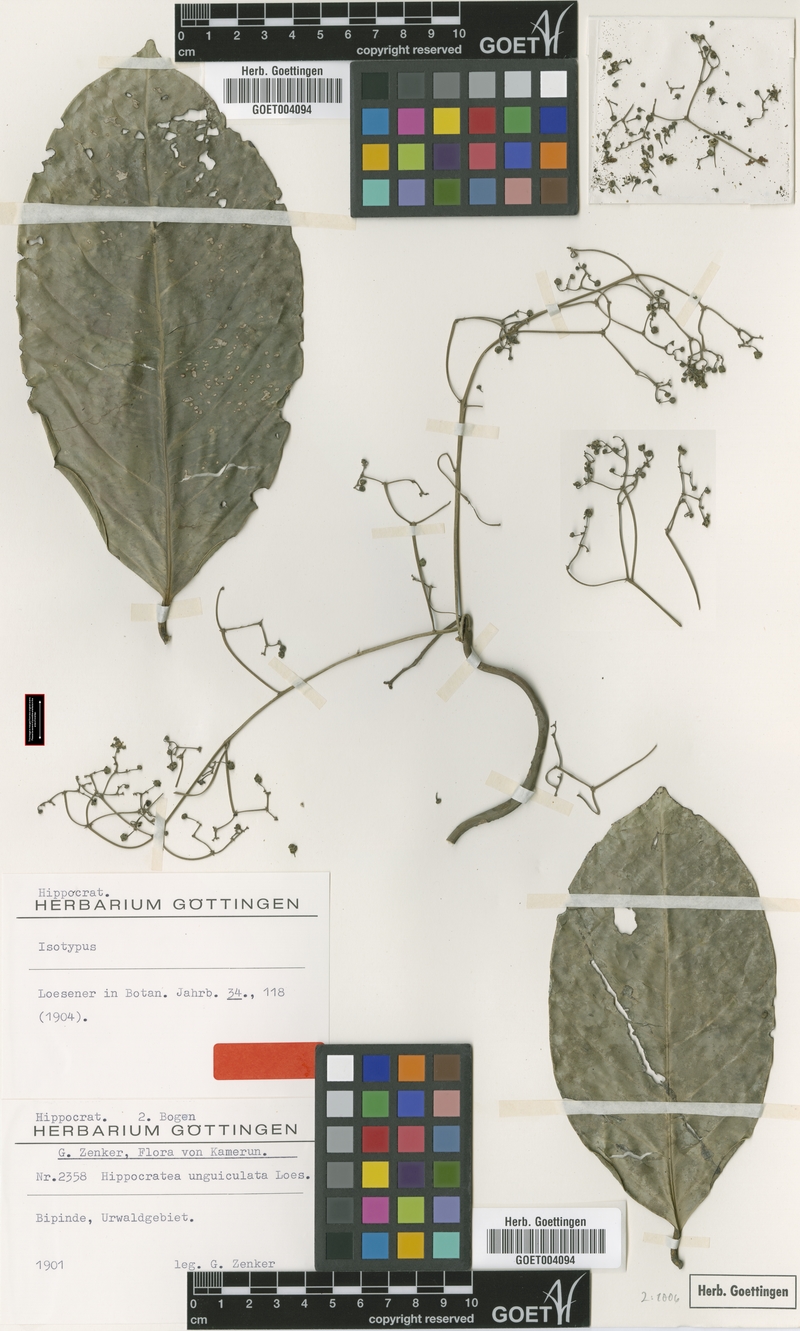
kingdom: Plantae
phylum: Tracheophyta
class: Magnoliopsida
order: Celastrales
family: Celastraceae
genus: Pristimera
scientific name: Pristimera unguiculata
